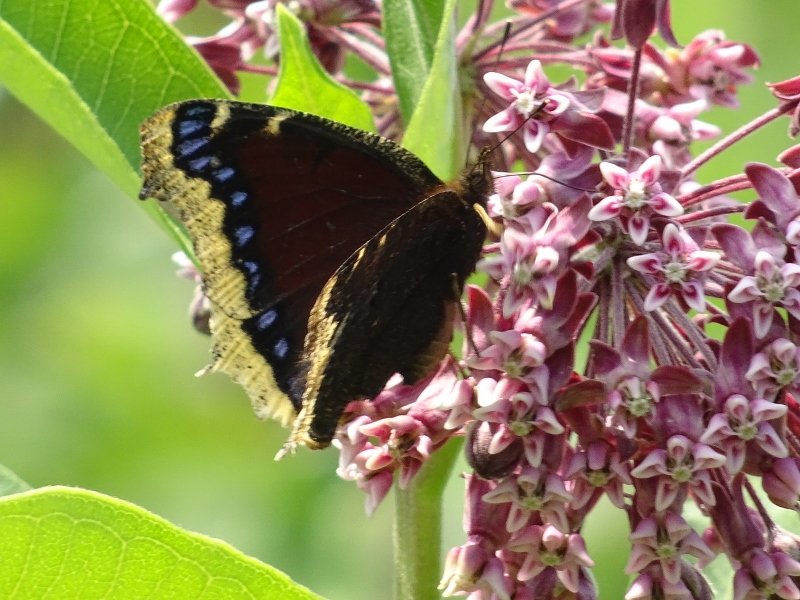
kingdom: Animalia
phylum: Arthropoda
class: Insecta
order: Lepidoptera
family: Nymphalidae
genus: Nymphalis
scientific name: Nymphalis antiopa
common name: Mourning Cloak
